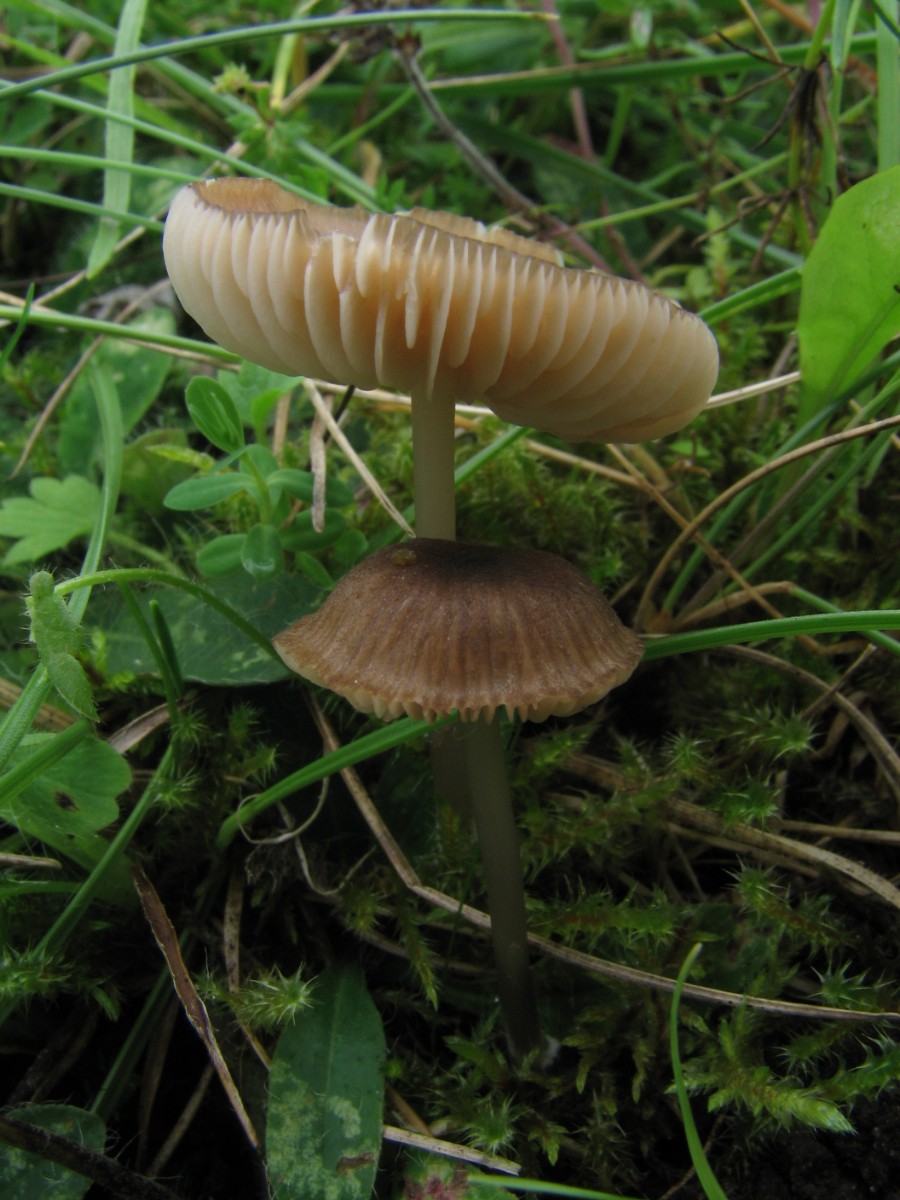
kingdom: Fungi
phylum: Basidiomycota
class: Agaricomycetes
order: Agaricales
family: Entolomataceae
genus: Entoloma
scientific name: Entoloma huijsmanii
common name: tosporet rødblad
